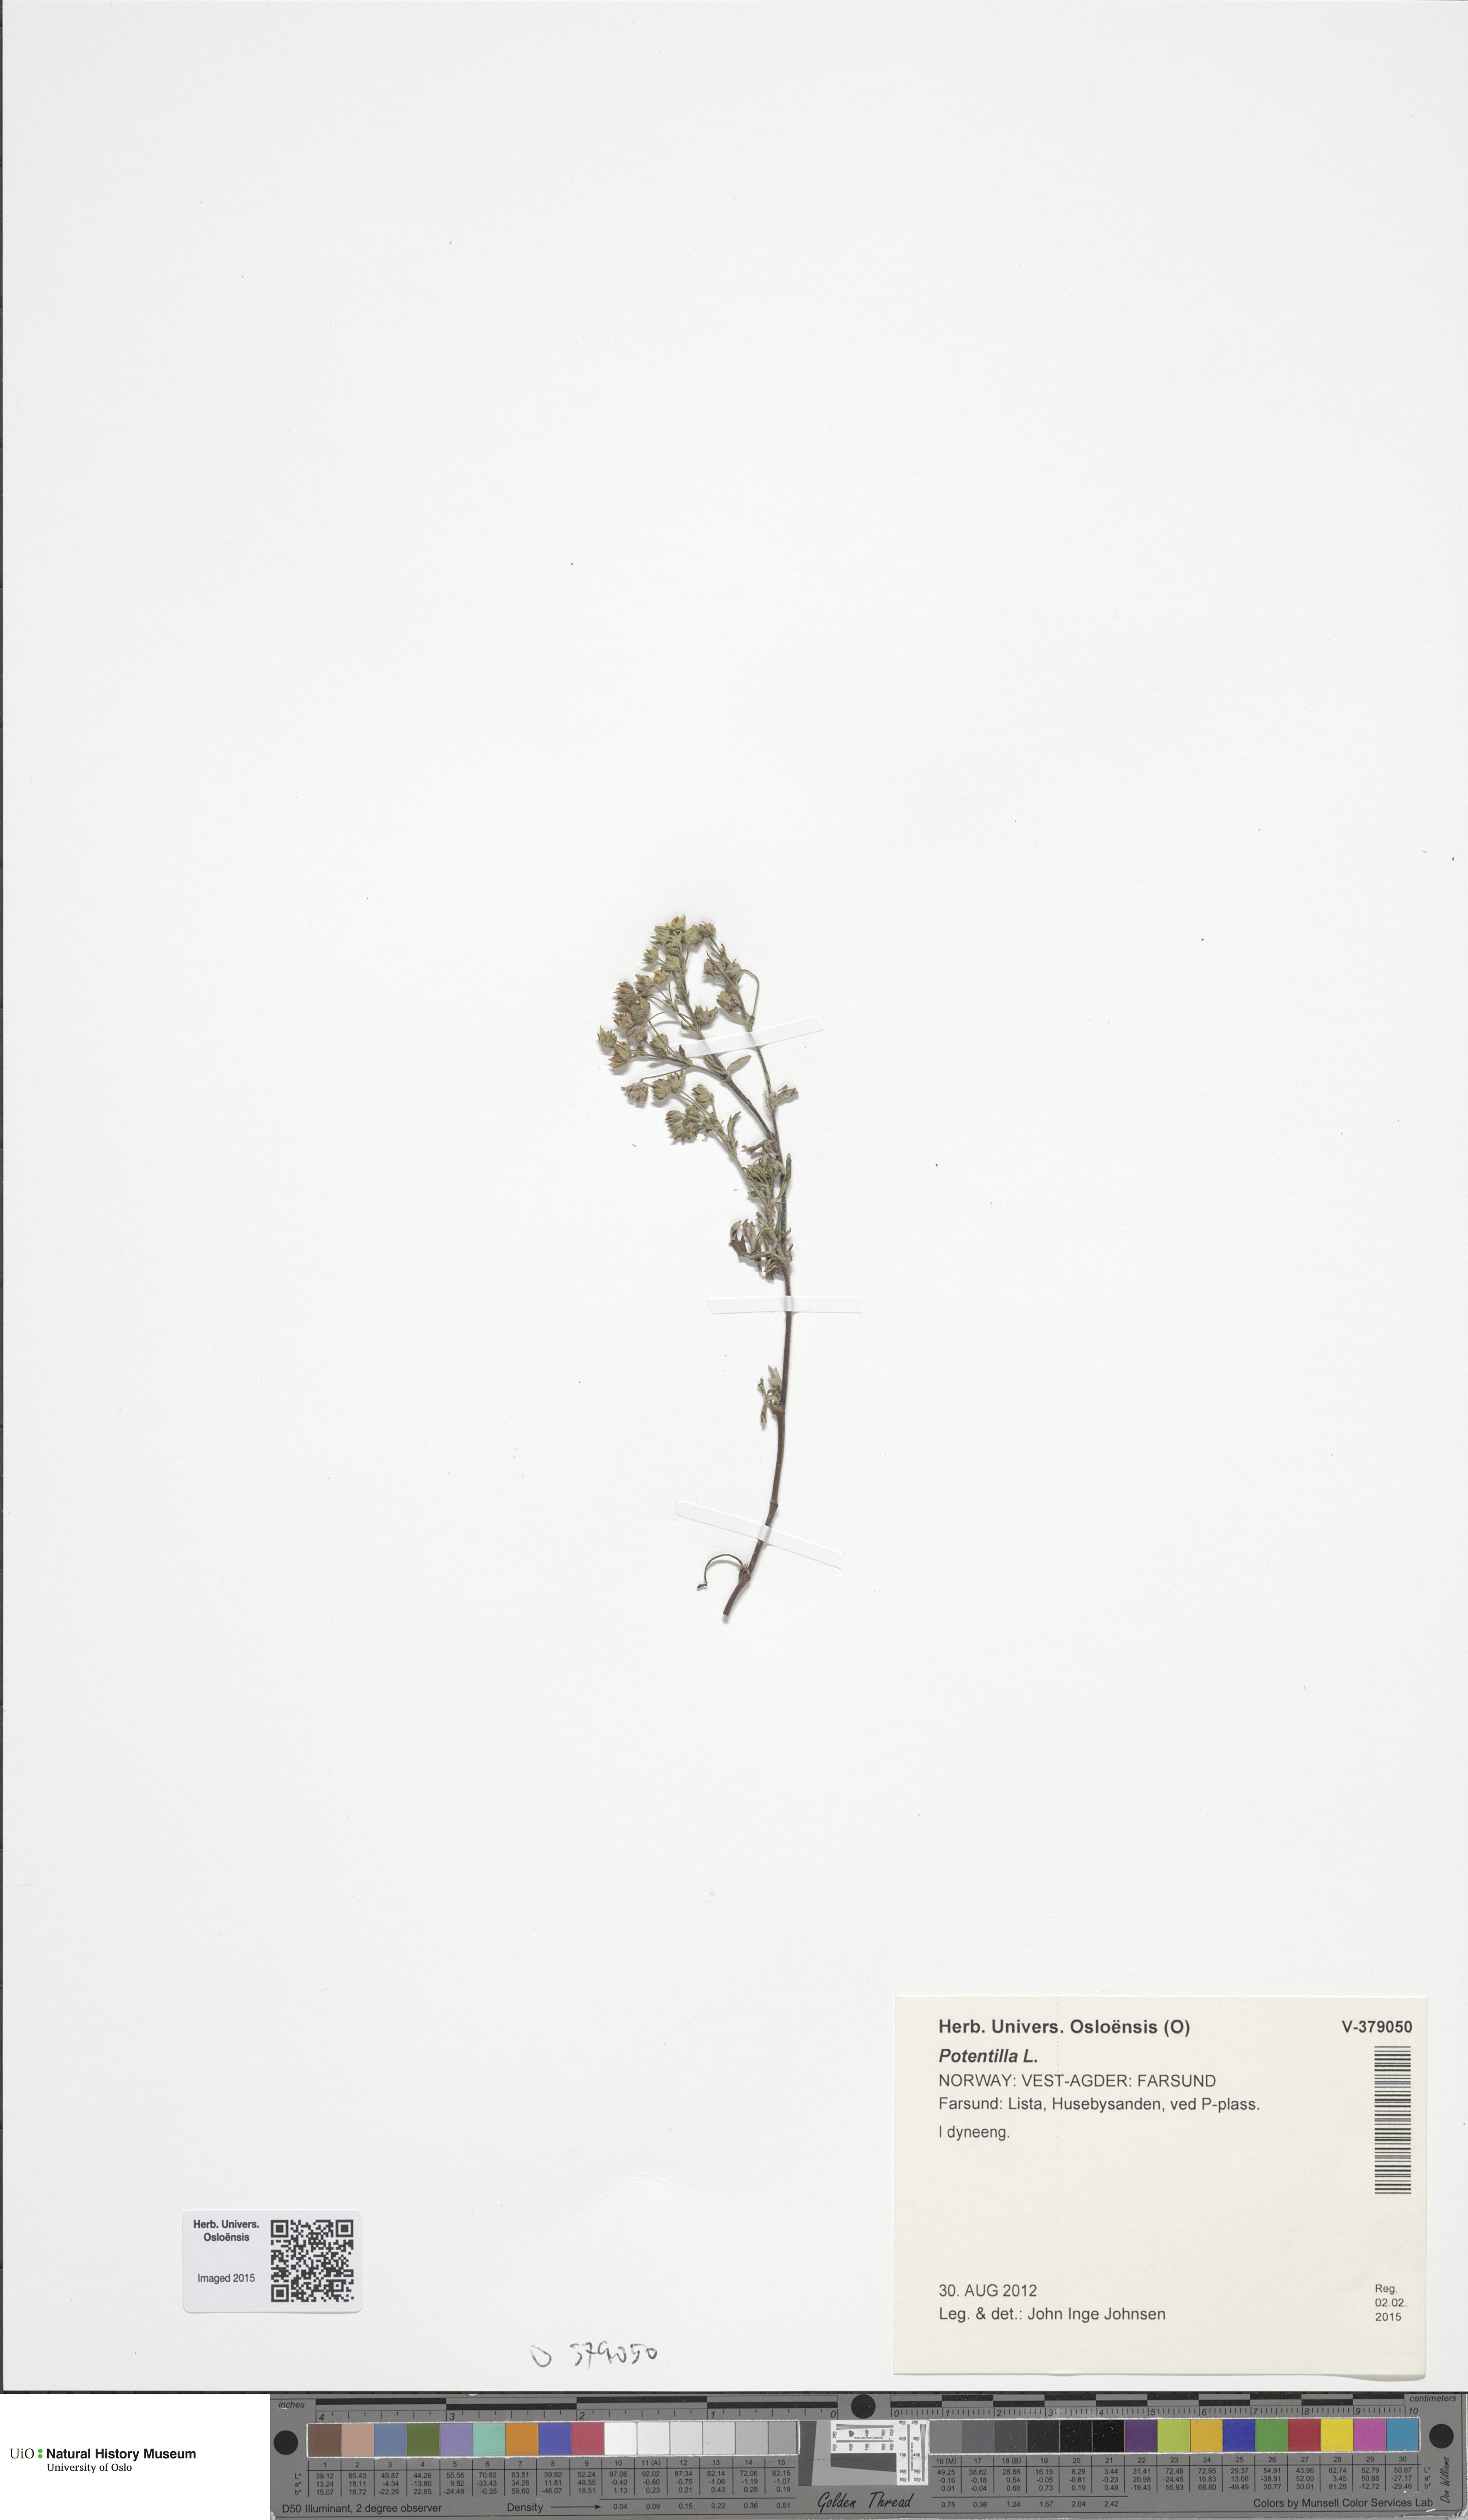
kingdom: Plantae
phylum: Tracheophyta
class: Magnoliopsida
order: Rosales
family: Rosaceae
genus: Potentilla
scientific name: Potentilla argentea
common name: Hoary cinquefoil
